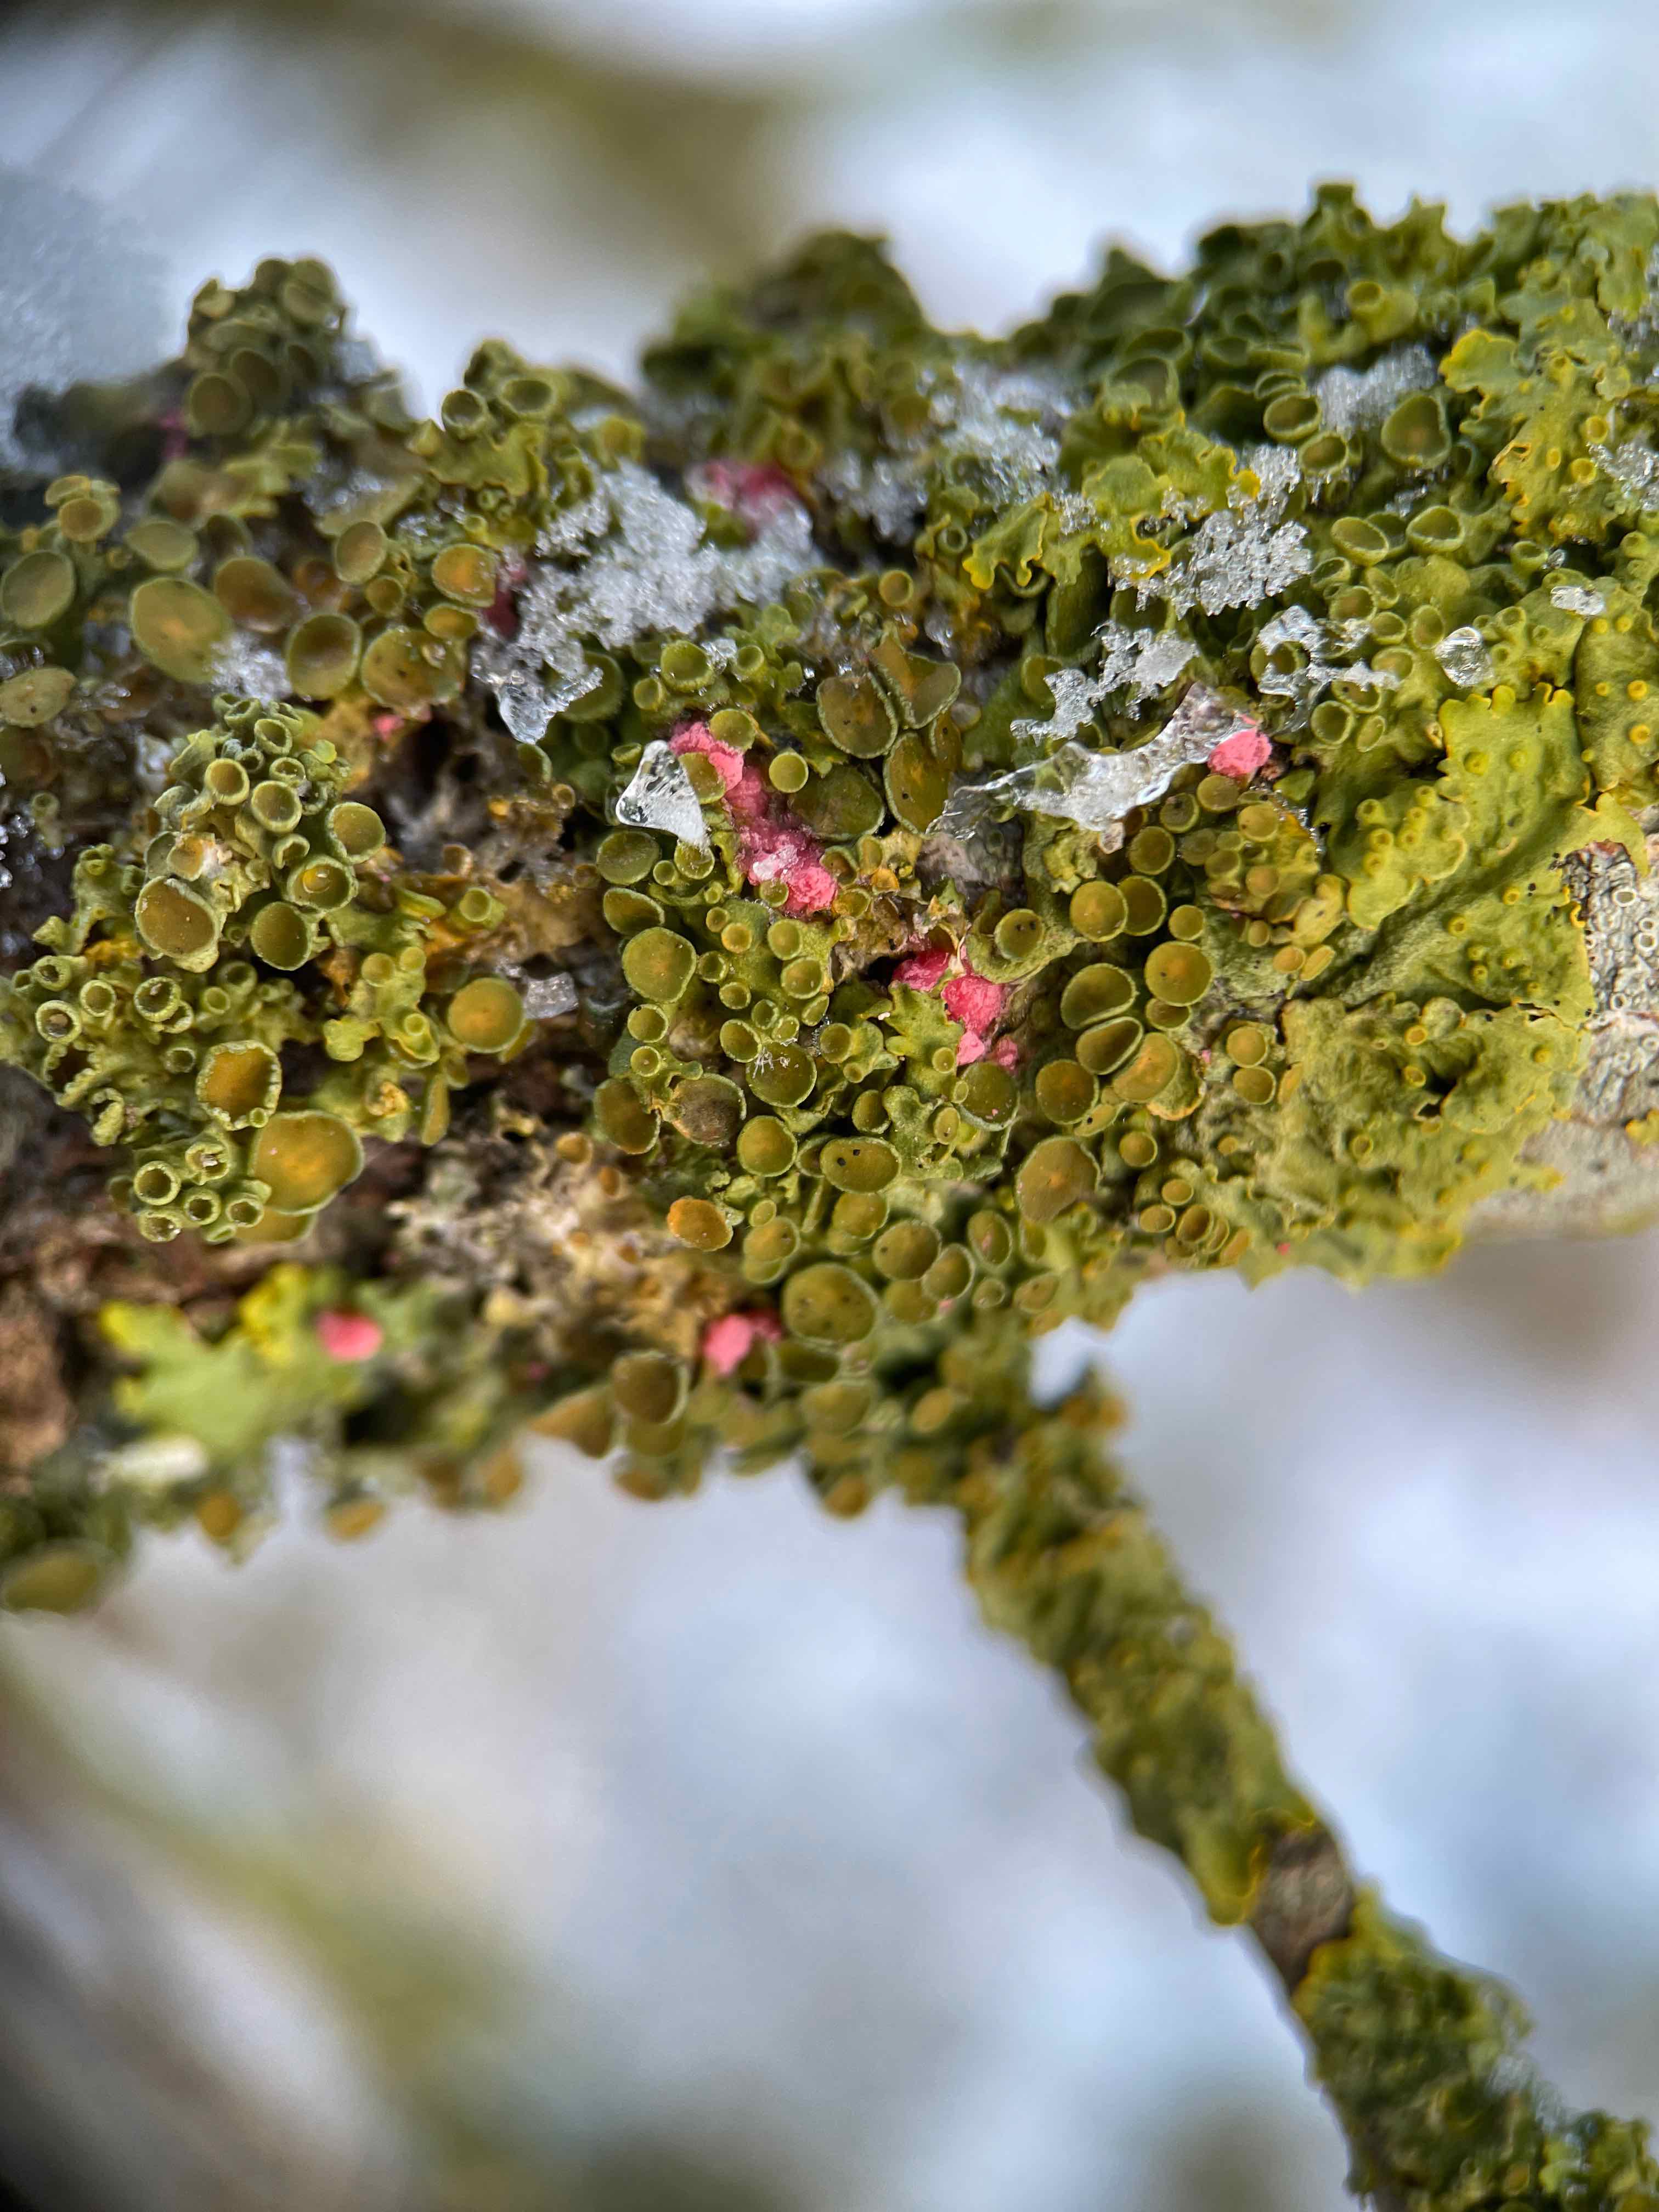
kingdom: Fungi
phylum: Ascomycota
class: Sordariomycetes
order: Hypocreales
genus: Illosporiopsis
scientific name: Illosporiopsis christiansenii
